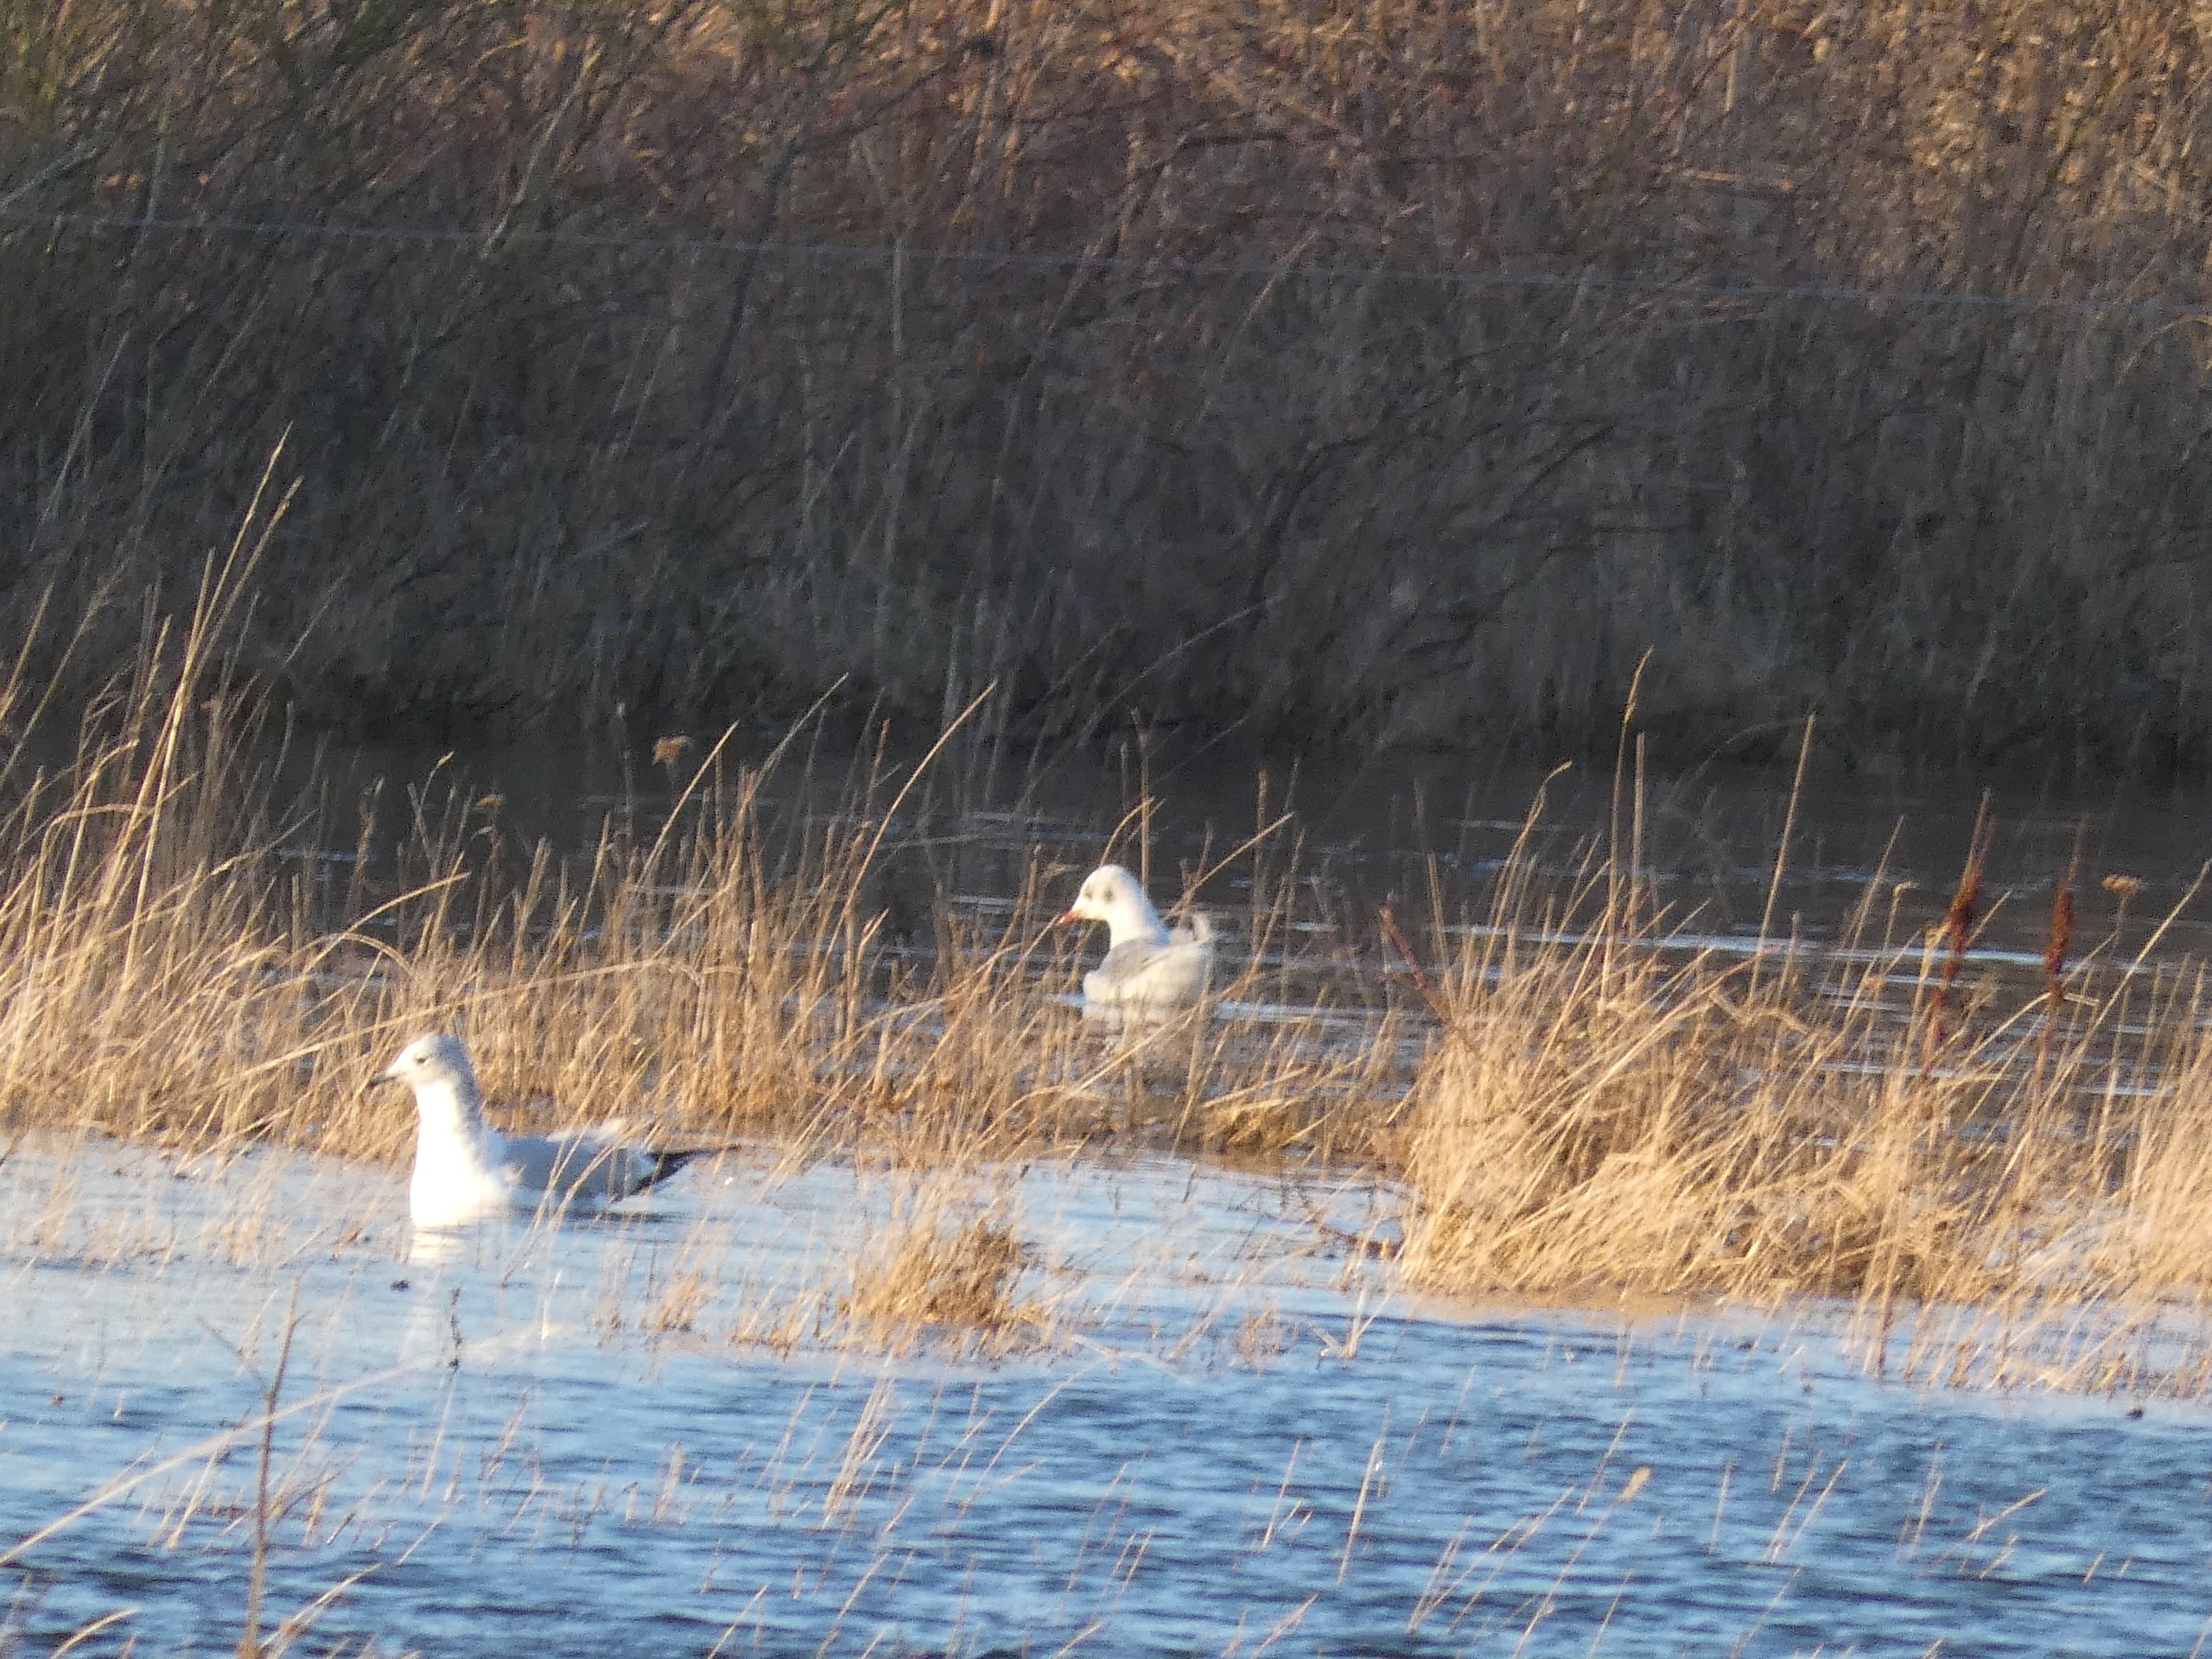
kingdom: Animalia
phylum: Chordata
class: Aves
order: Charadriiformes
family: Laridae
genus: Chroicocephalus
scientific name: Chroicocephalus ridibundus
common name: Hættemåge
